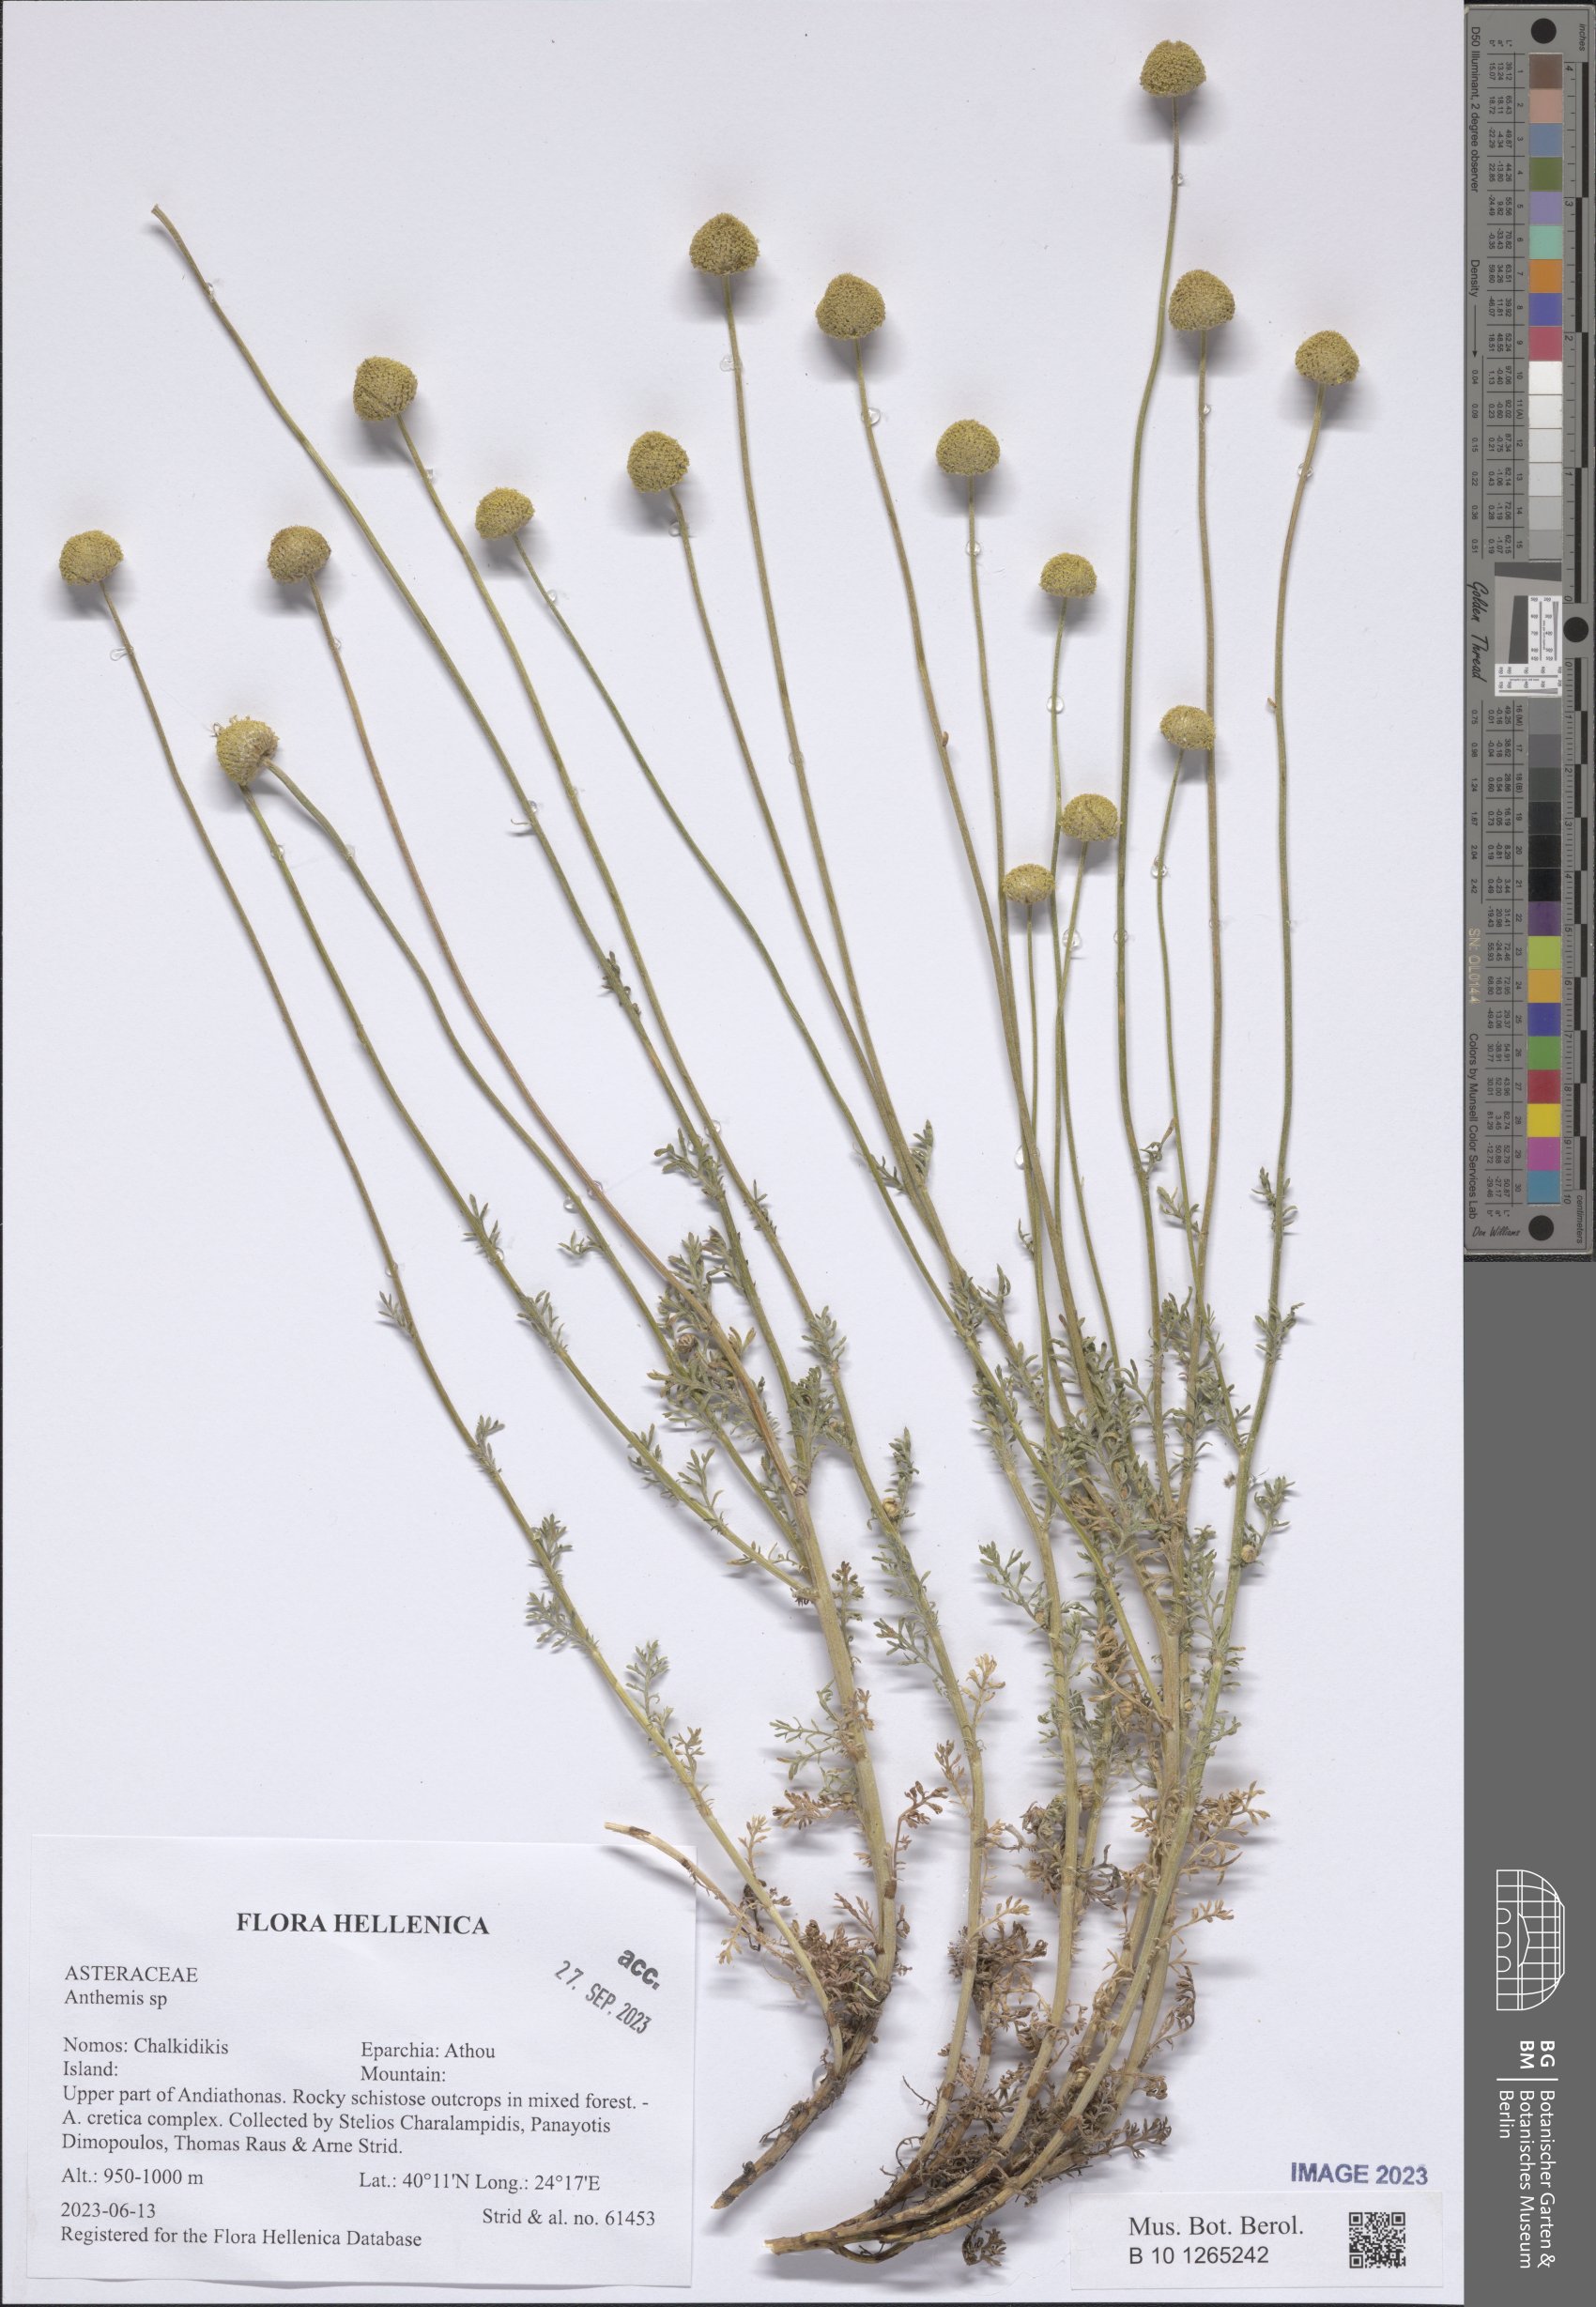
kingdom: Plantae
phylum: Tracheophyta
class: Magnoliopsida
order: Asterales
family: Asteraceae
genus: Anthemis
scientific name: Anthemis
